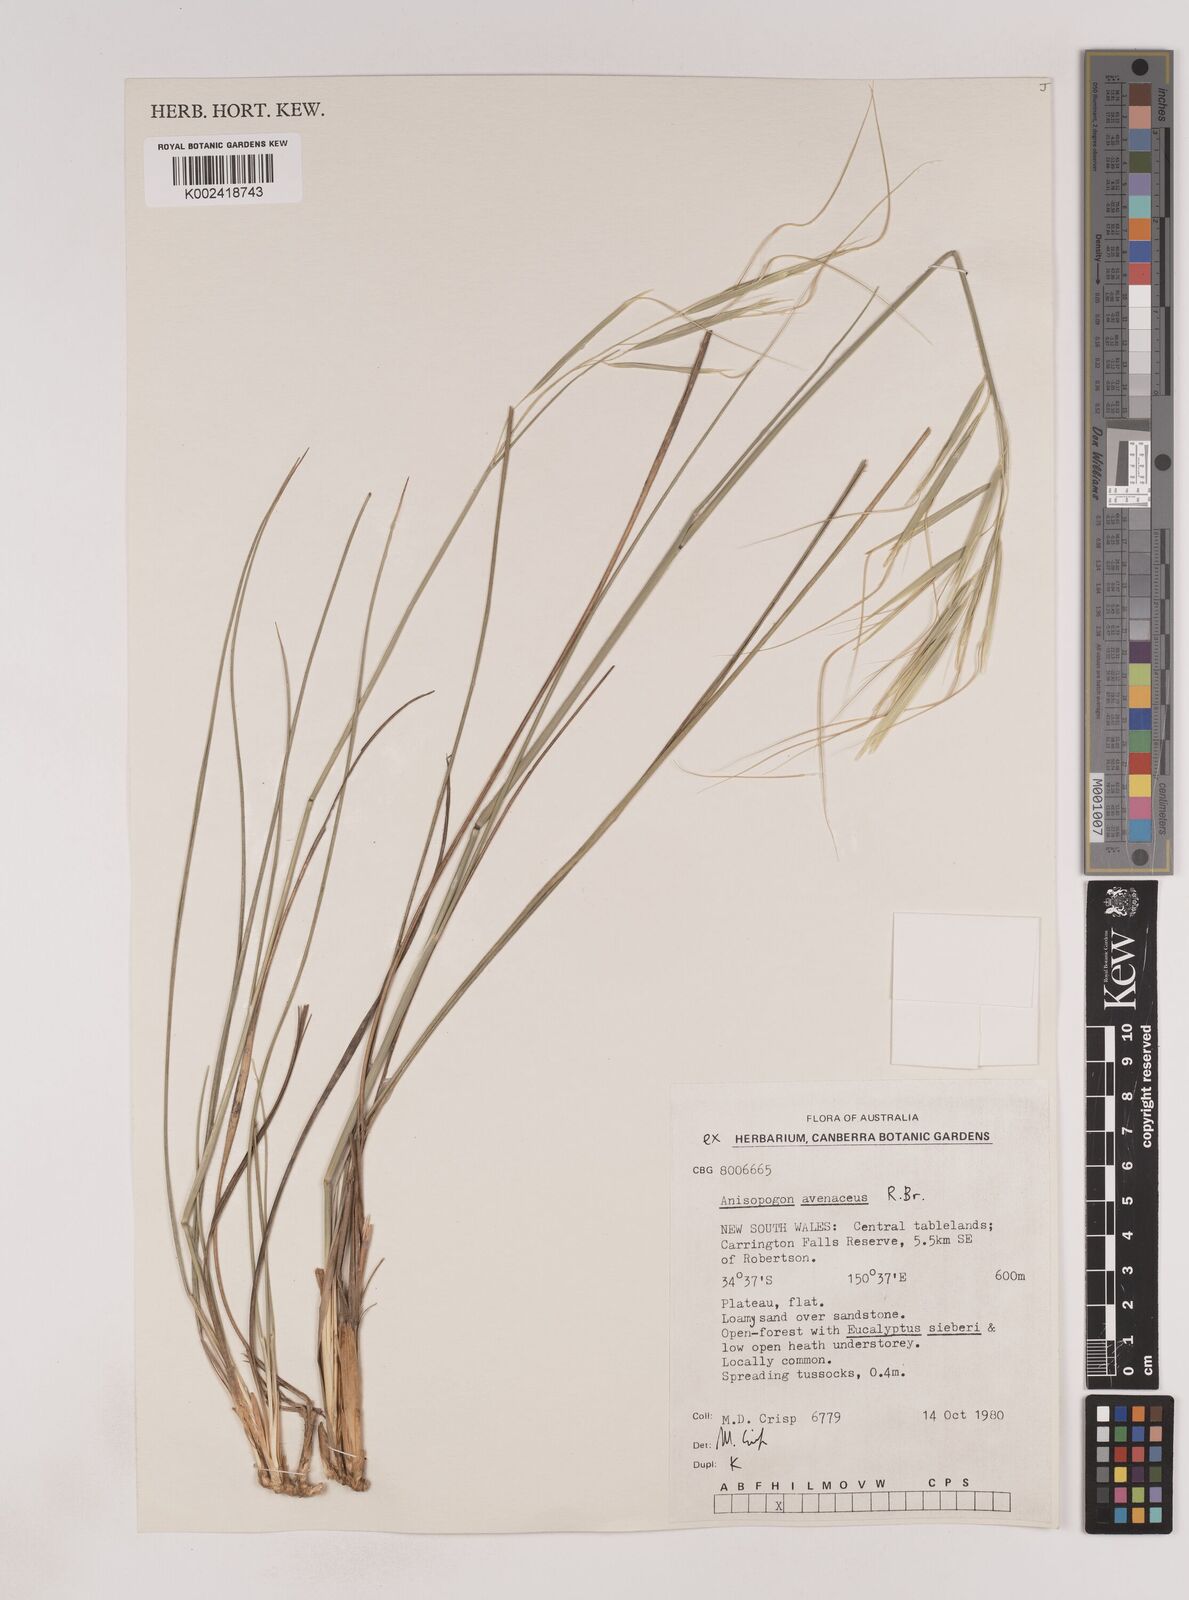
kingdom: Plantae
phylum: Tracheophyta
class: Liliopsida
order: Poales
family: Poaceae
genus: Anisopogon
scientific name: Anisopogon avenaceus
